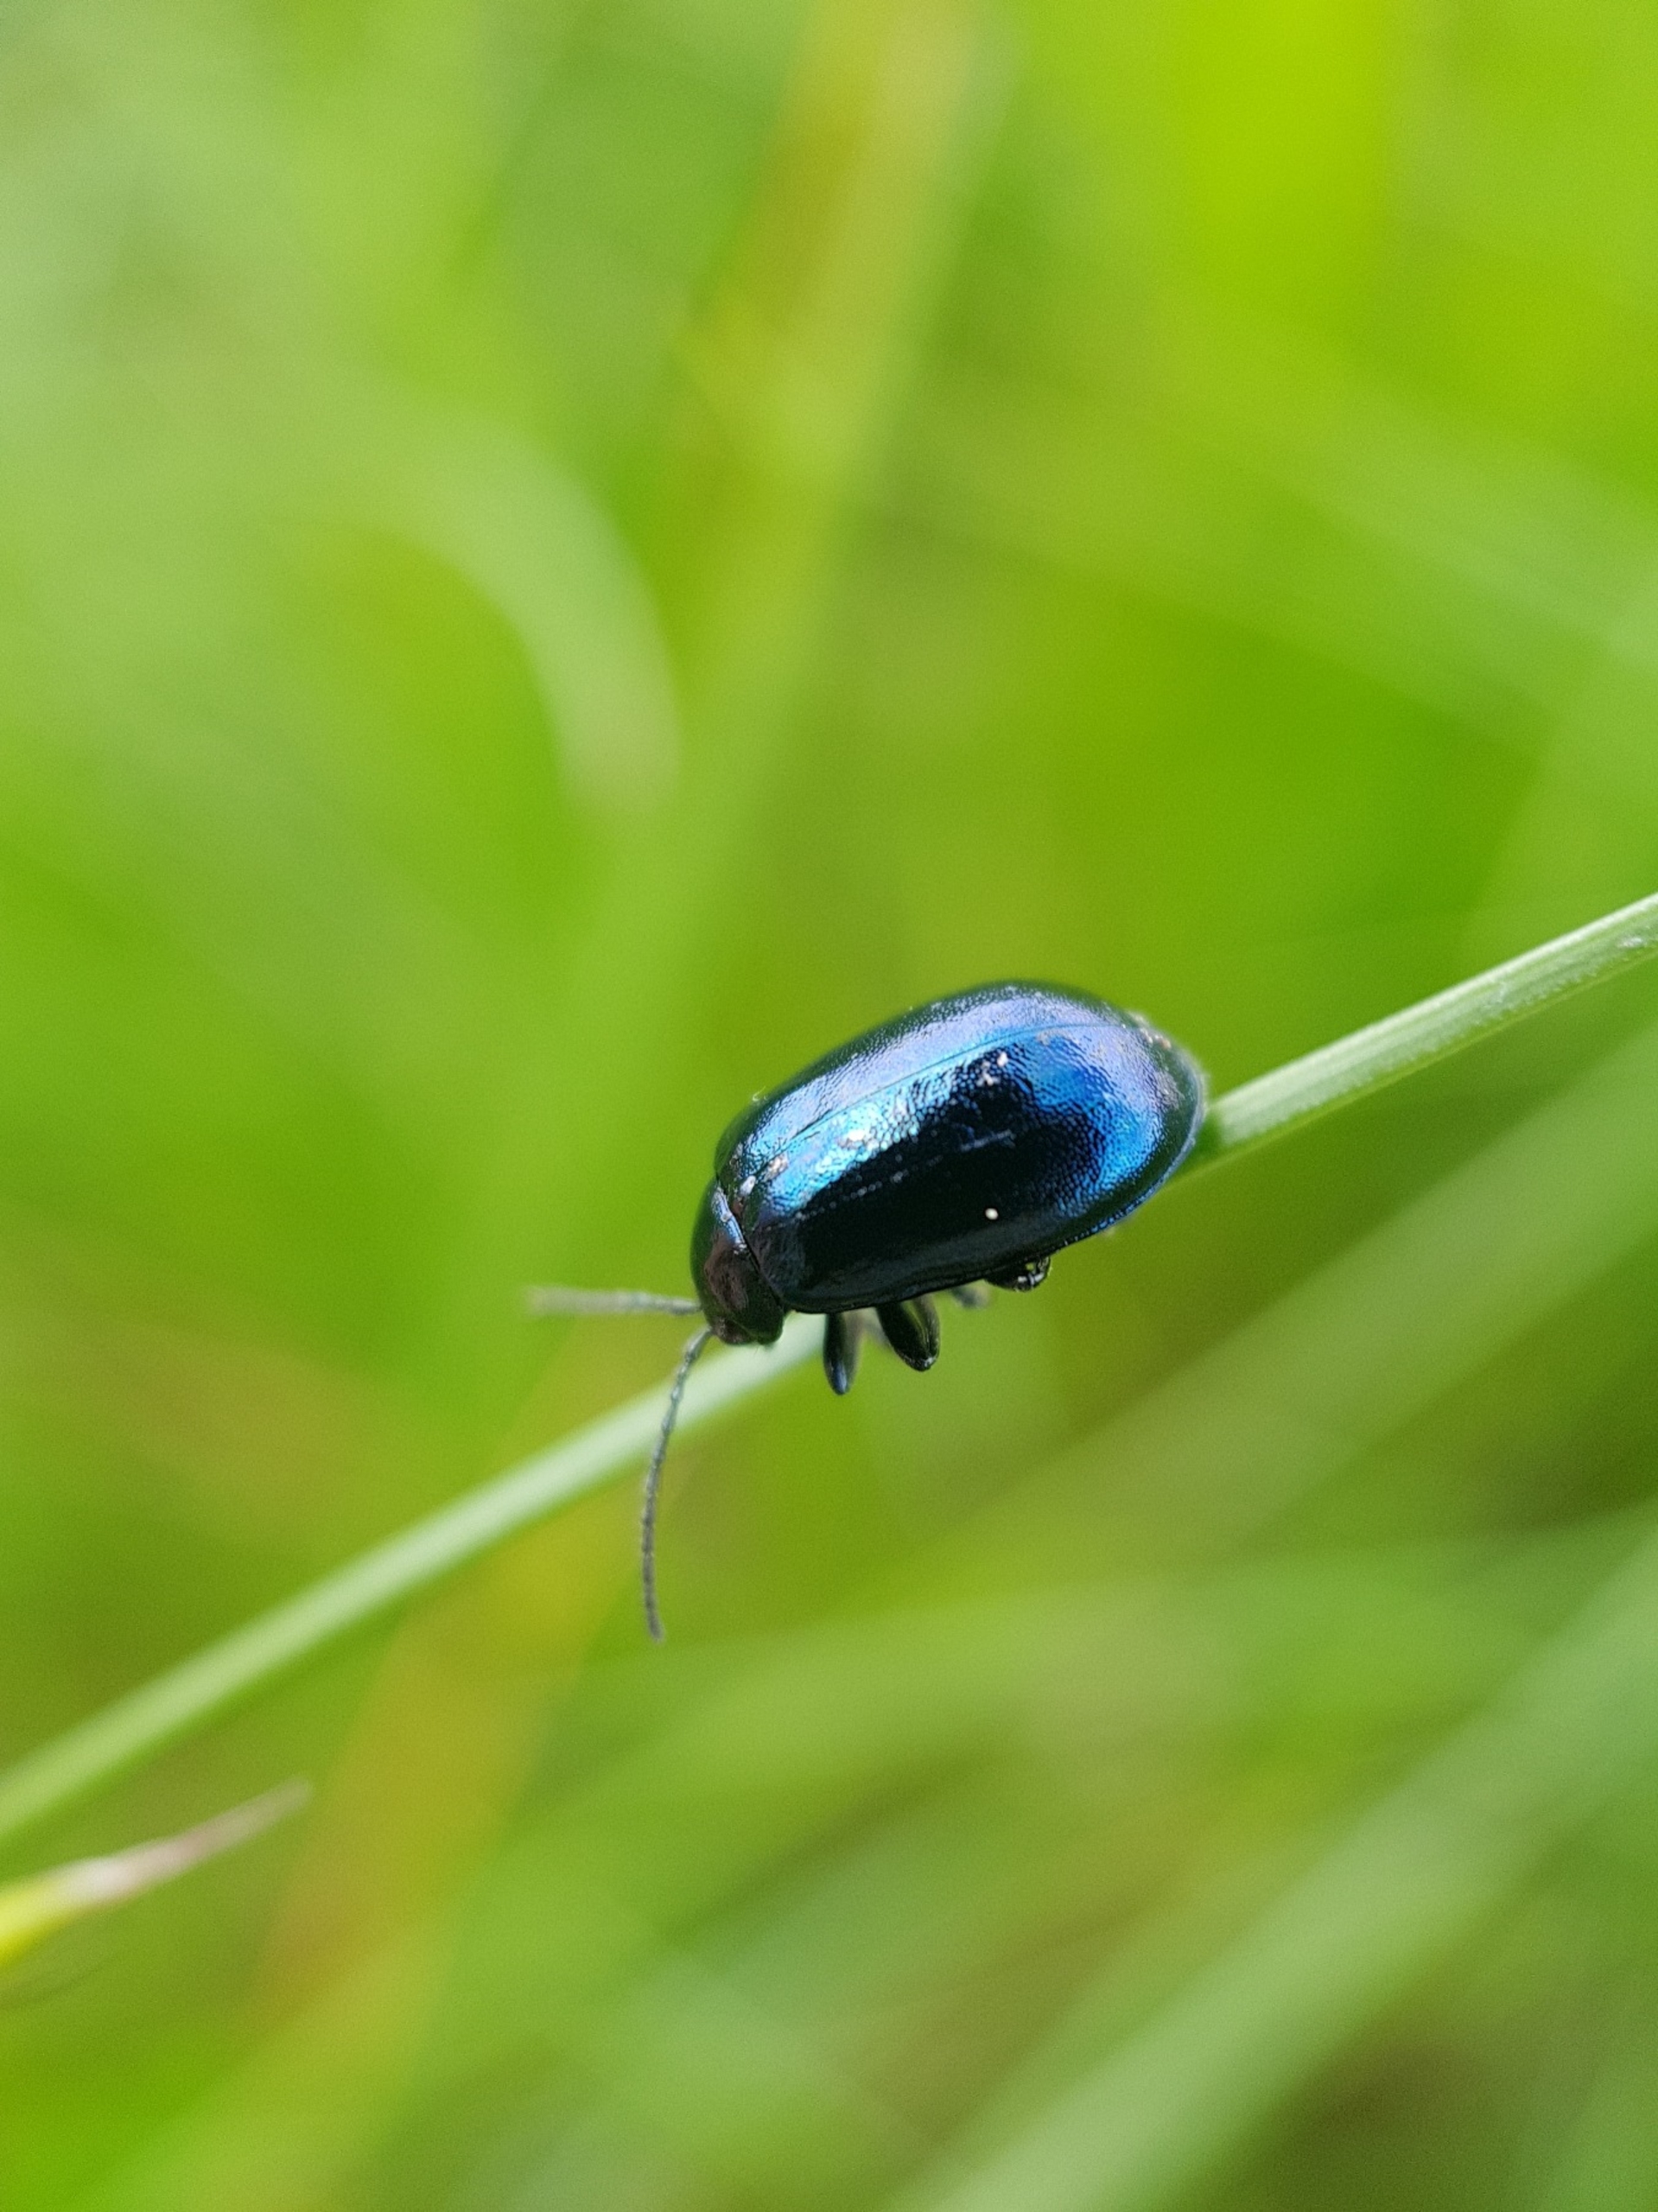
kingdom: Animalia
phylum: Arthropoda
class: Insecta
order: Coleoptera
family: Chrysomelidae
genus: Agelastica
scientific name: Agelastica alni
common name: Ellebladbille
